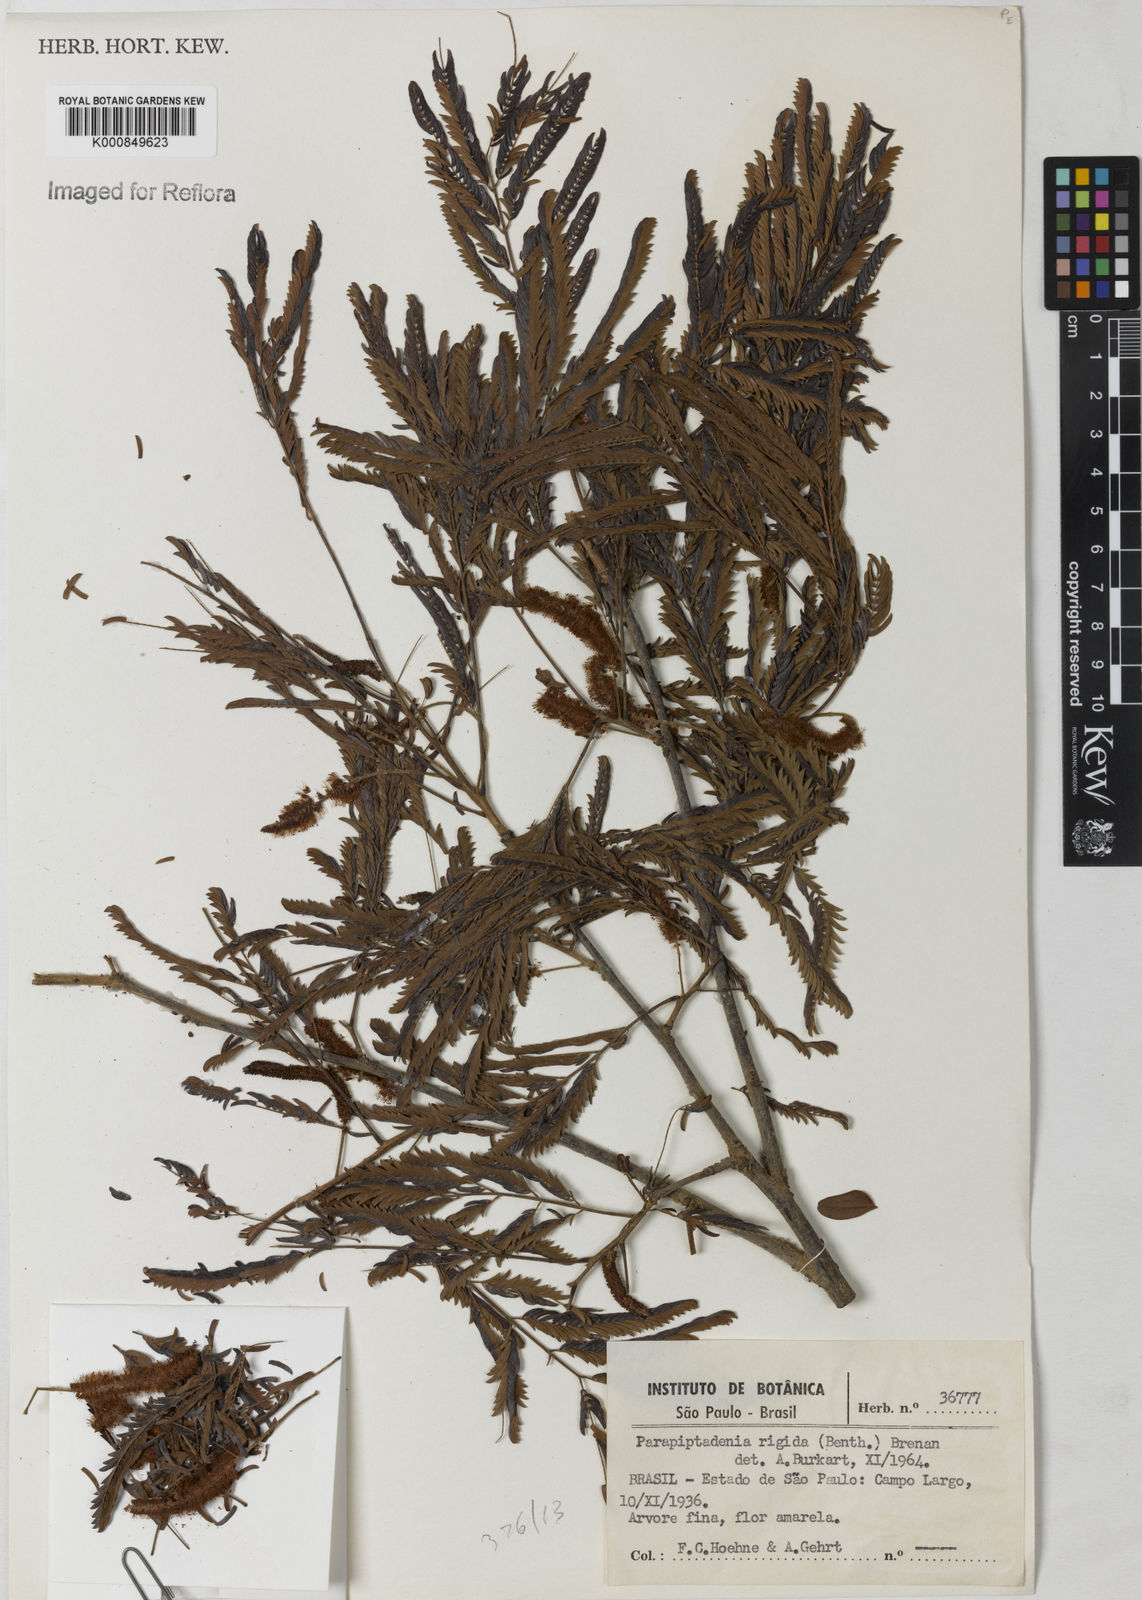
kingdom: Plantae
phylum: Tracheophyta
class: Magnoliopsida
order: Fabales
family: Fabaceae
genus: Parapiptadenia
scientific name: Parapiptadenia rigida
